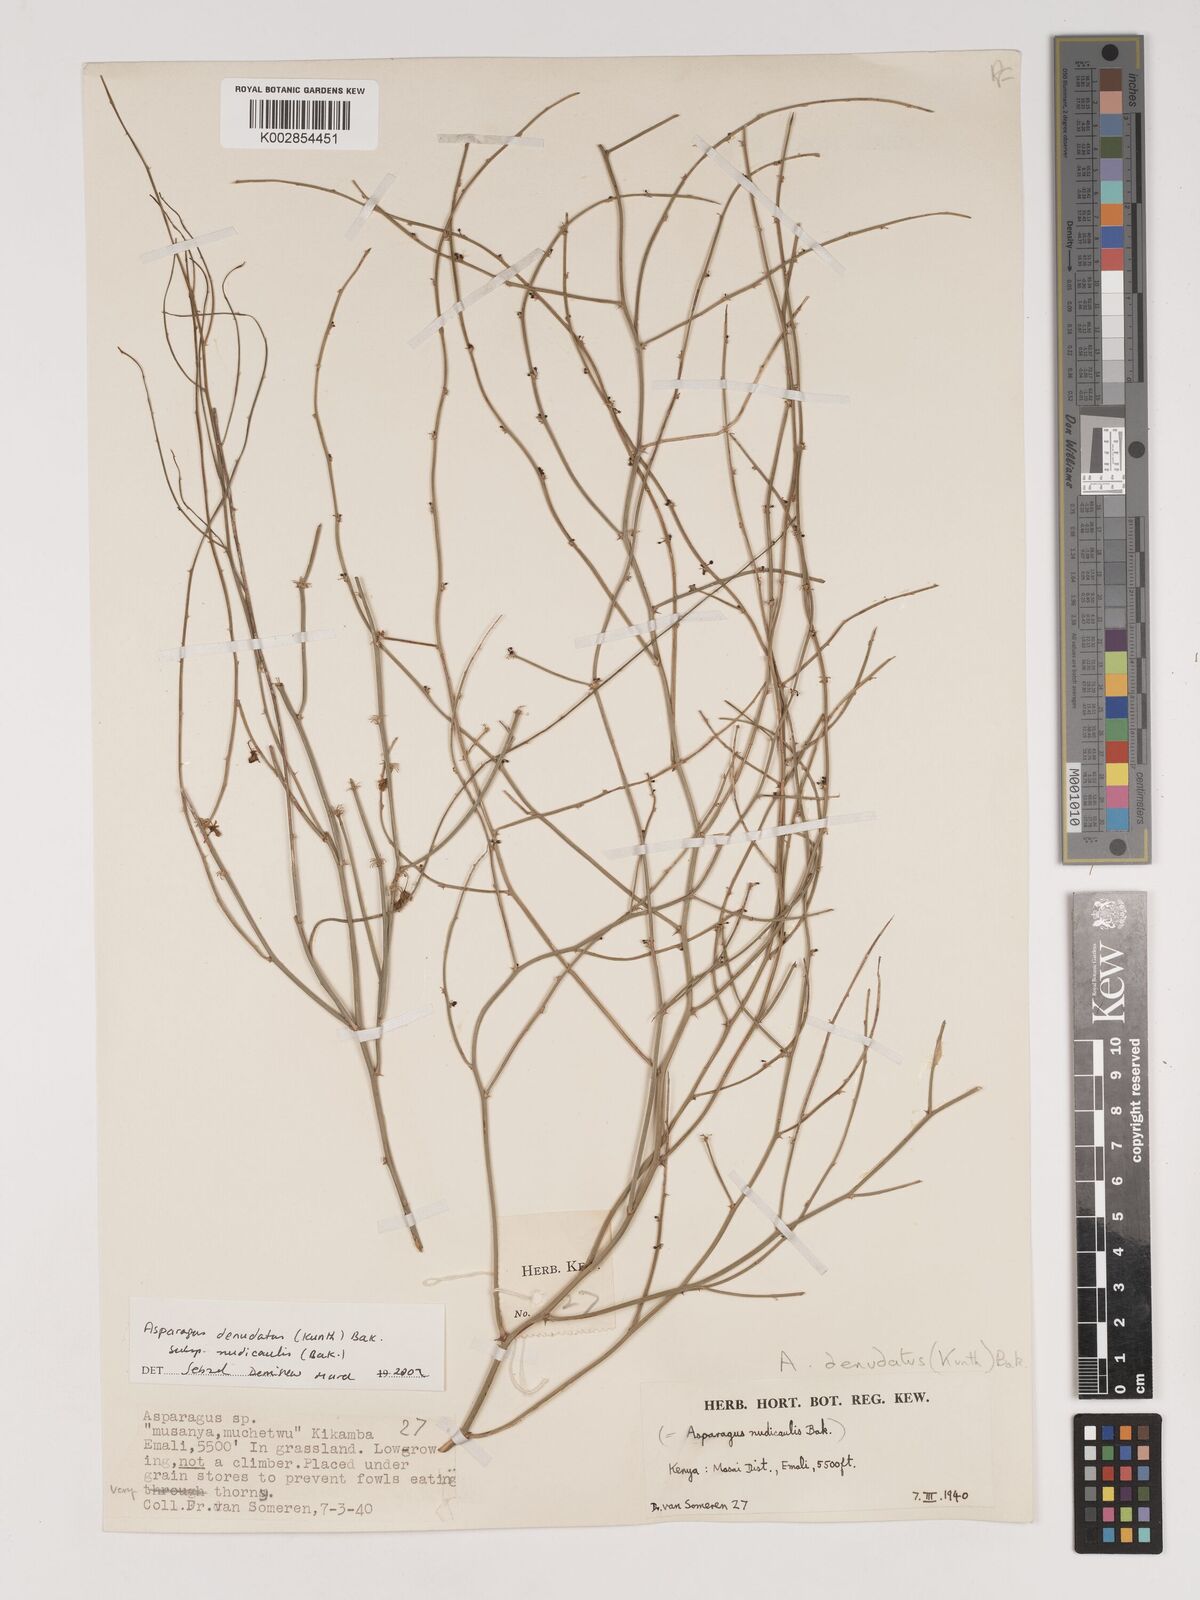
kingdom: Plantae
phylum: Tracheophyta
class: Liliopsida
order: Asparagales
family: Asparagaceae
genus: Asparagus
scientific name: Asparagus denudatus
